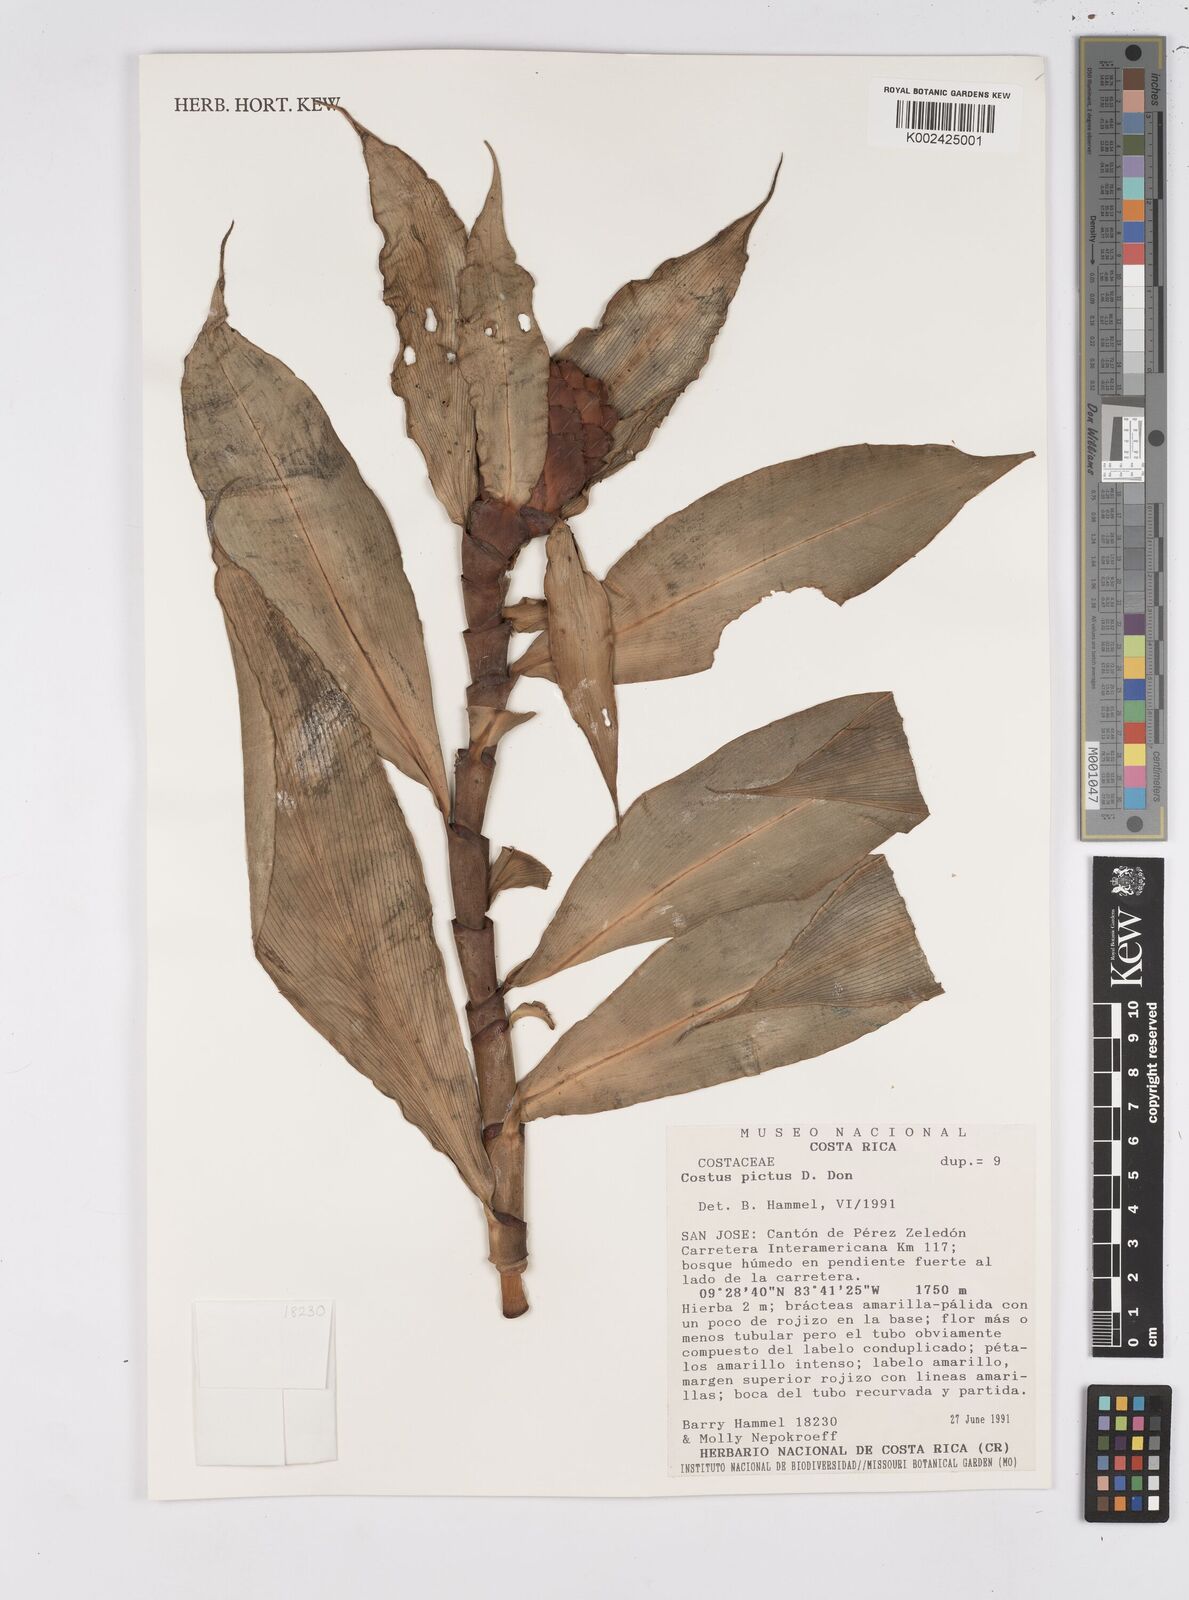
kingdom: Plantae
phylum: Tracheophyta
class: Liliopsida
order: Zingiberales
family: Costaceae
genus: Costus
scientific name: Costus pictus
